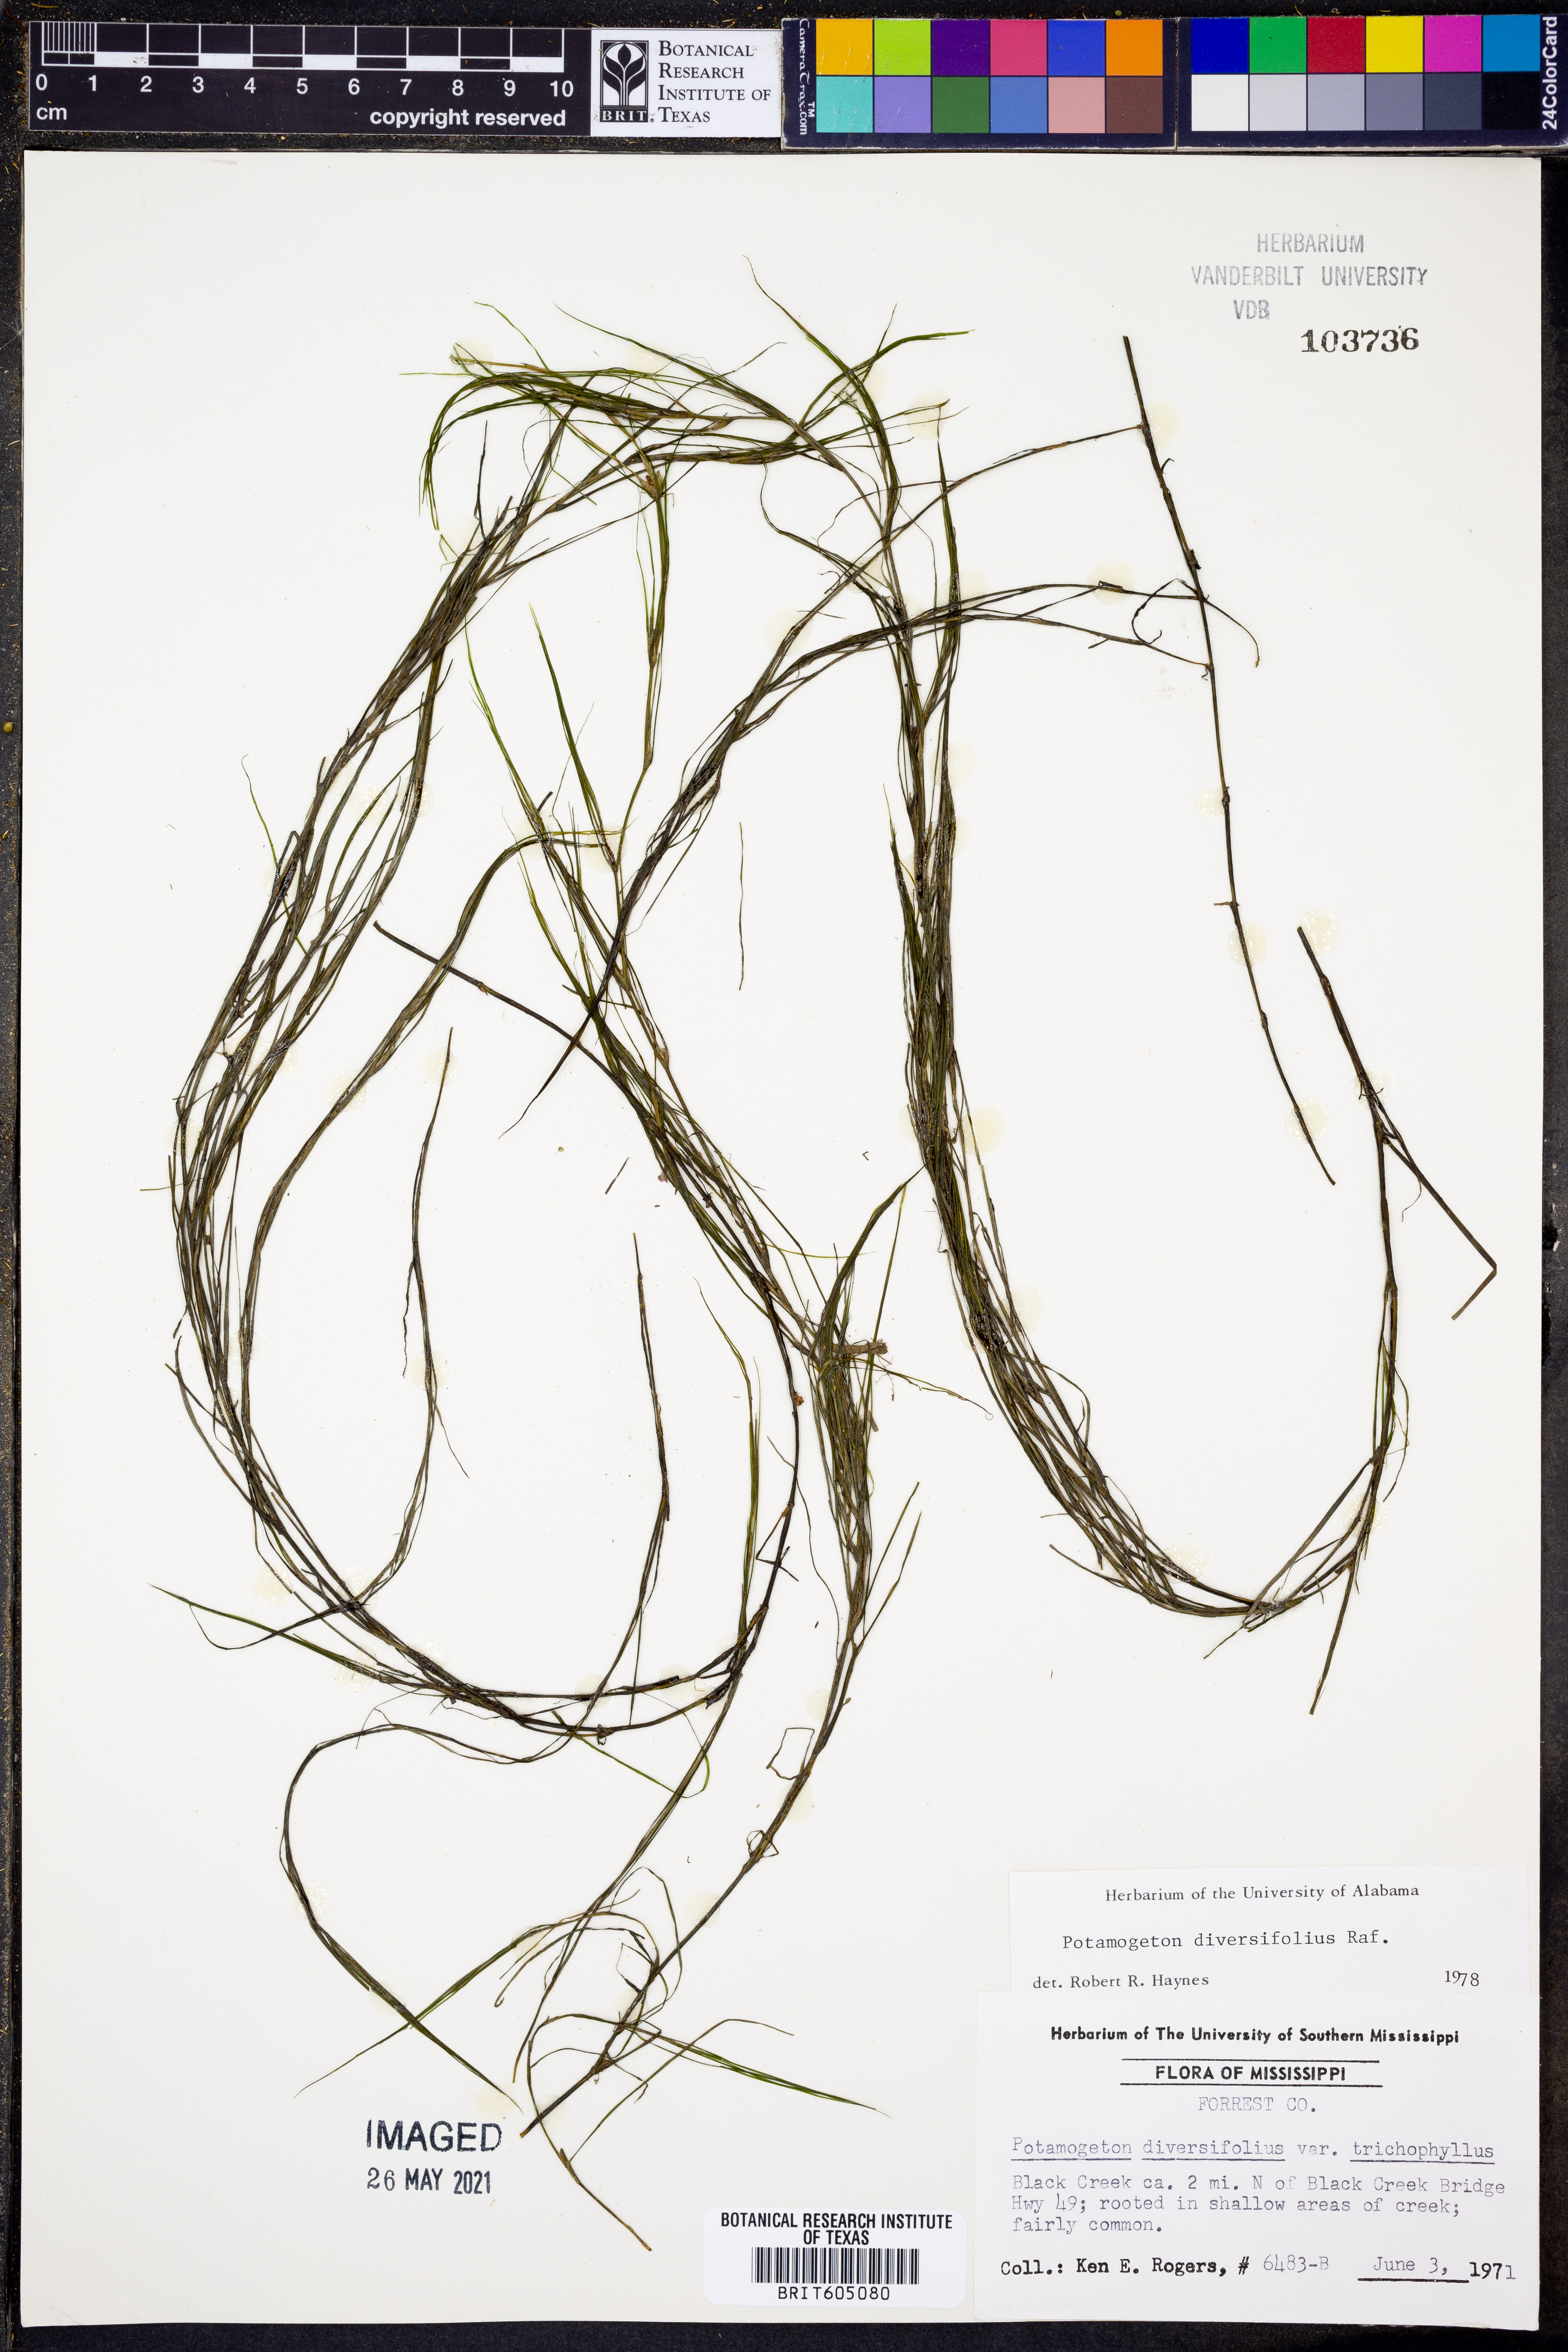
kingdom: Plantae
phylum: Tracheophyta
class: Liliopsida
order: Alismatales
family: Potamogetonaceae
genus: Potamogeton
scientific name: Potamogeton diversifolius
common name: Water-thread pondweed
